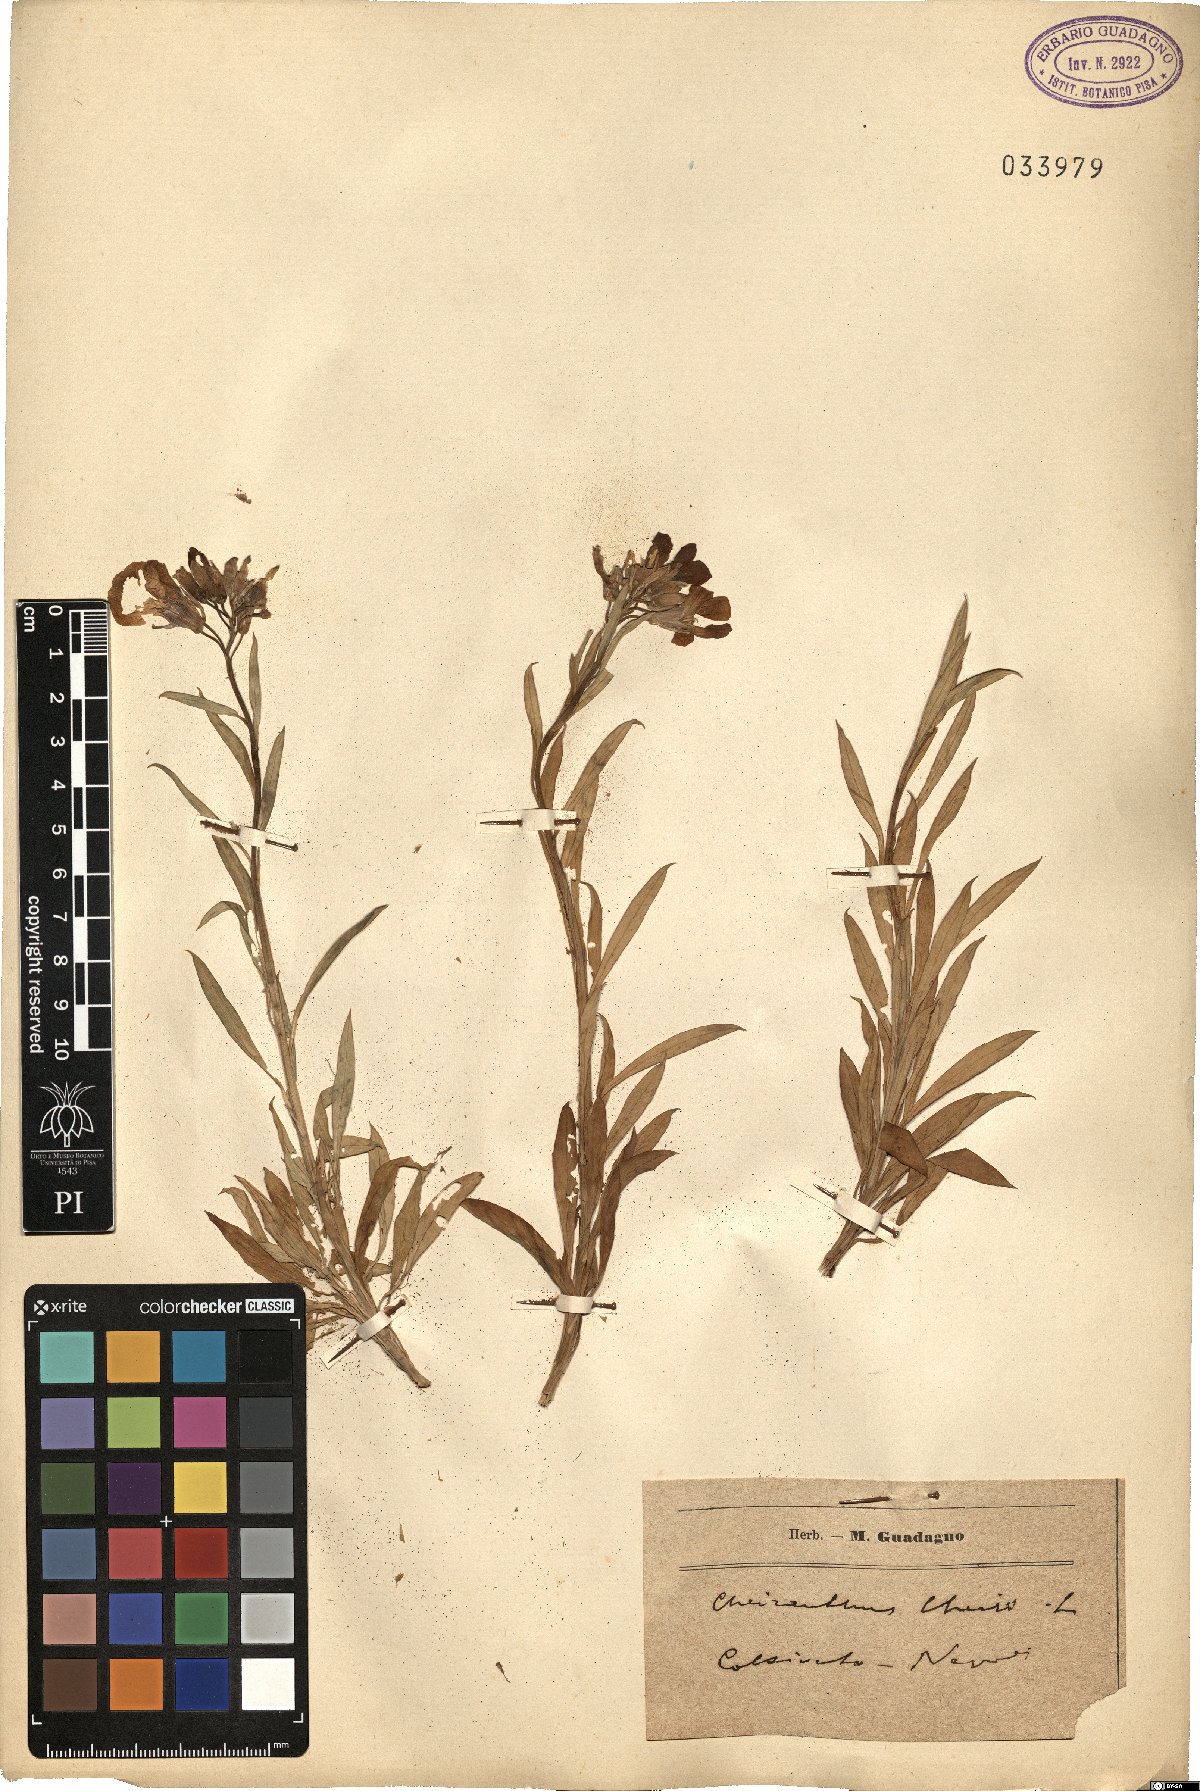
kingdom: Plantae
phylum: Tracheophyta
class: Magnoliopsida
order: Brassicales
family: Brassicaceae
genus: Erysimum
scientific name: Erysimum cheiri
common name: Wallflower
